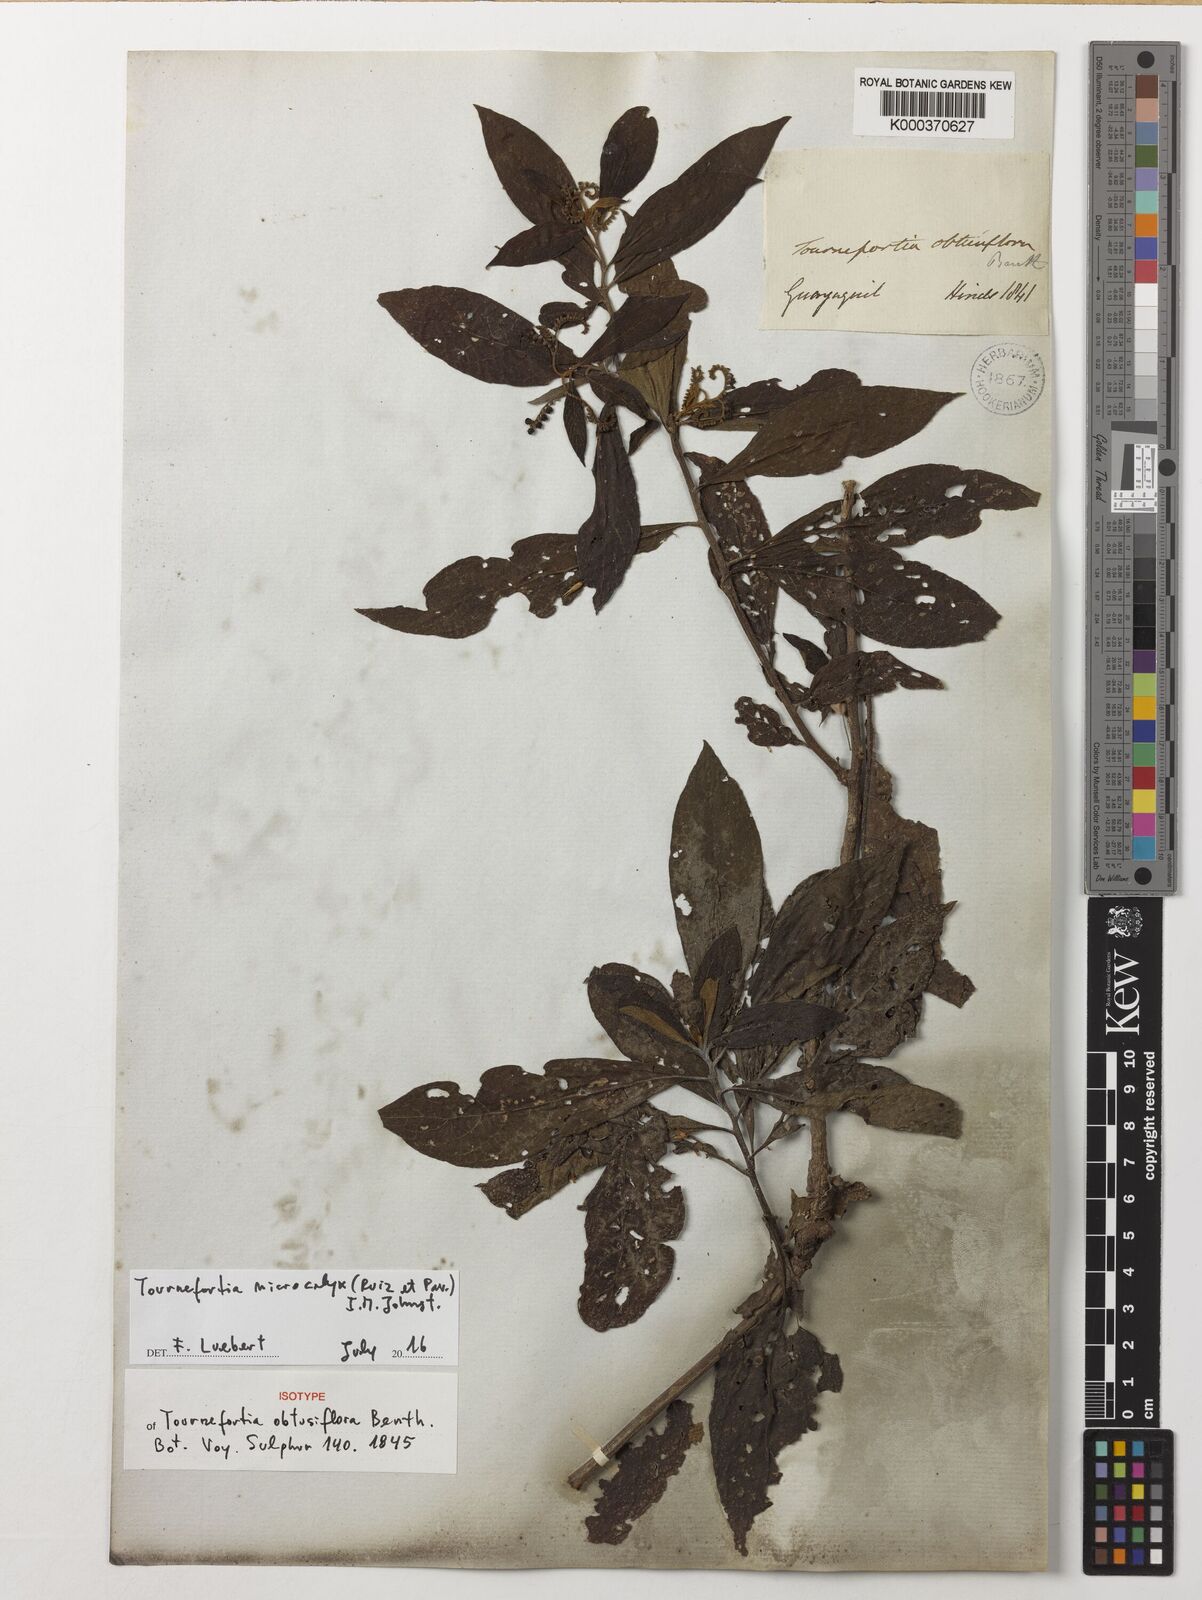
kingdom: Plantae
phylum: Tracheophyta
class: Magnoliopsida
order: Boraginales
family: Heliotropiaceae
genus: Tournefortia
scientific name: Tournefortia microcalyx
